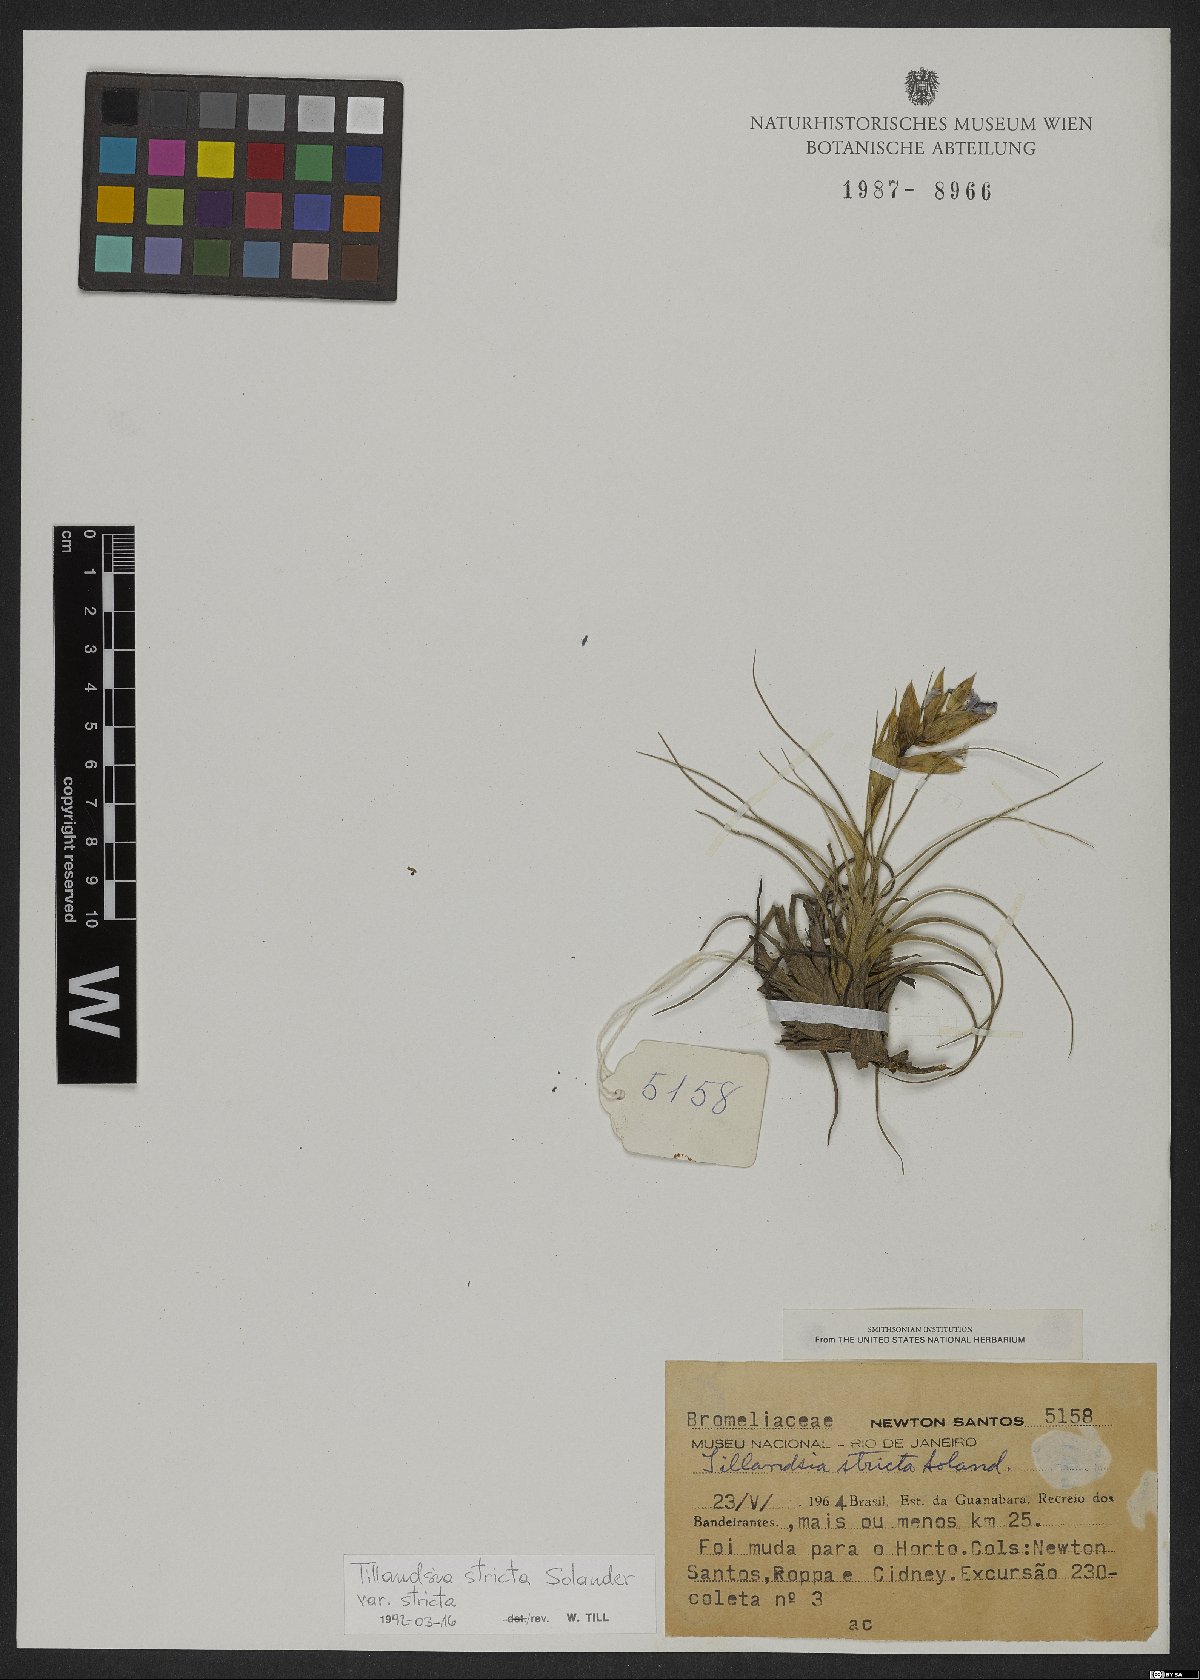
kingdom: Plantae
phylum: Tracheophyta
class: Liliopsida
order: Poales
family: Bromeliaceae
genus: Tillandsia
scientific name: Tillandsia stricta
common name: Airplant
